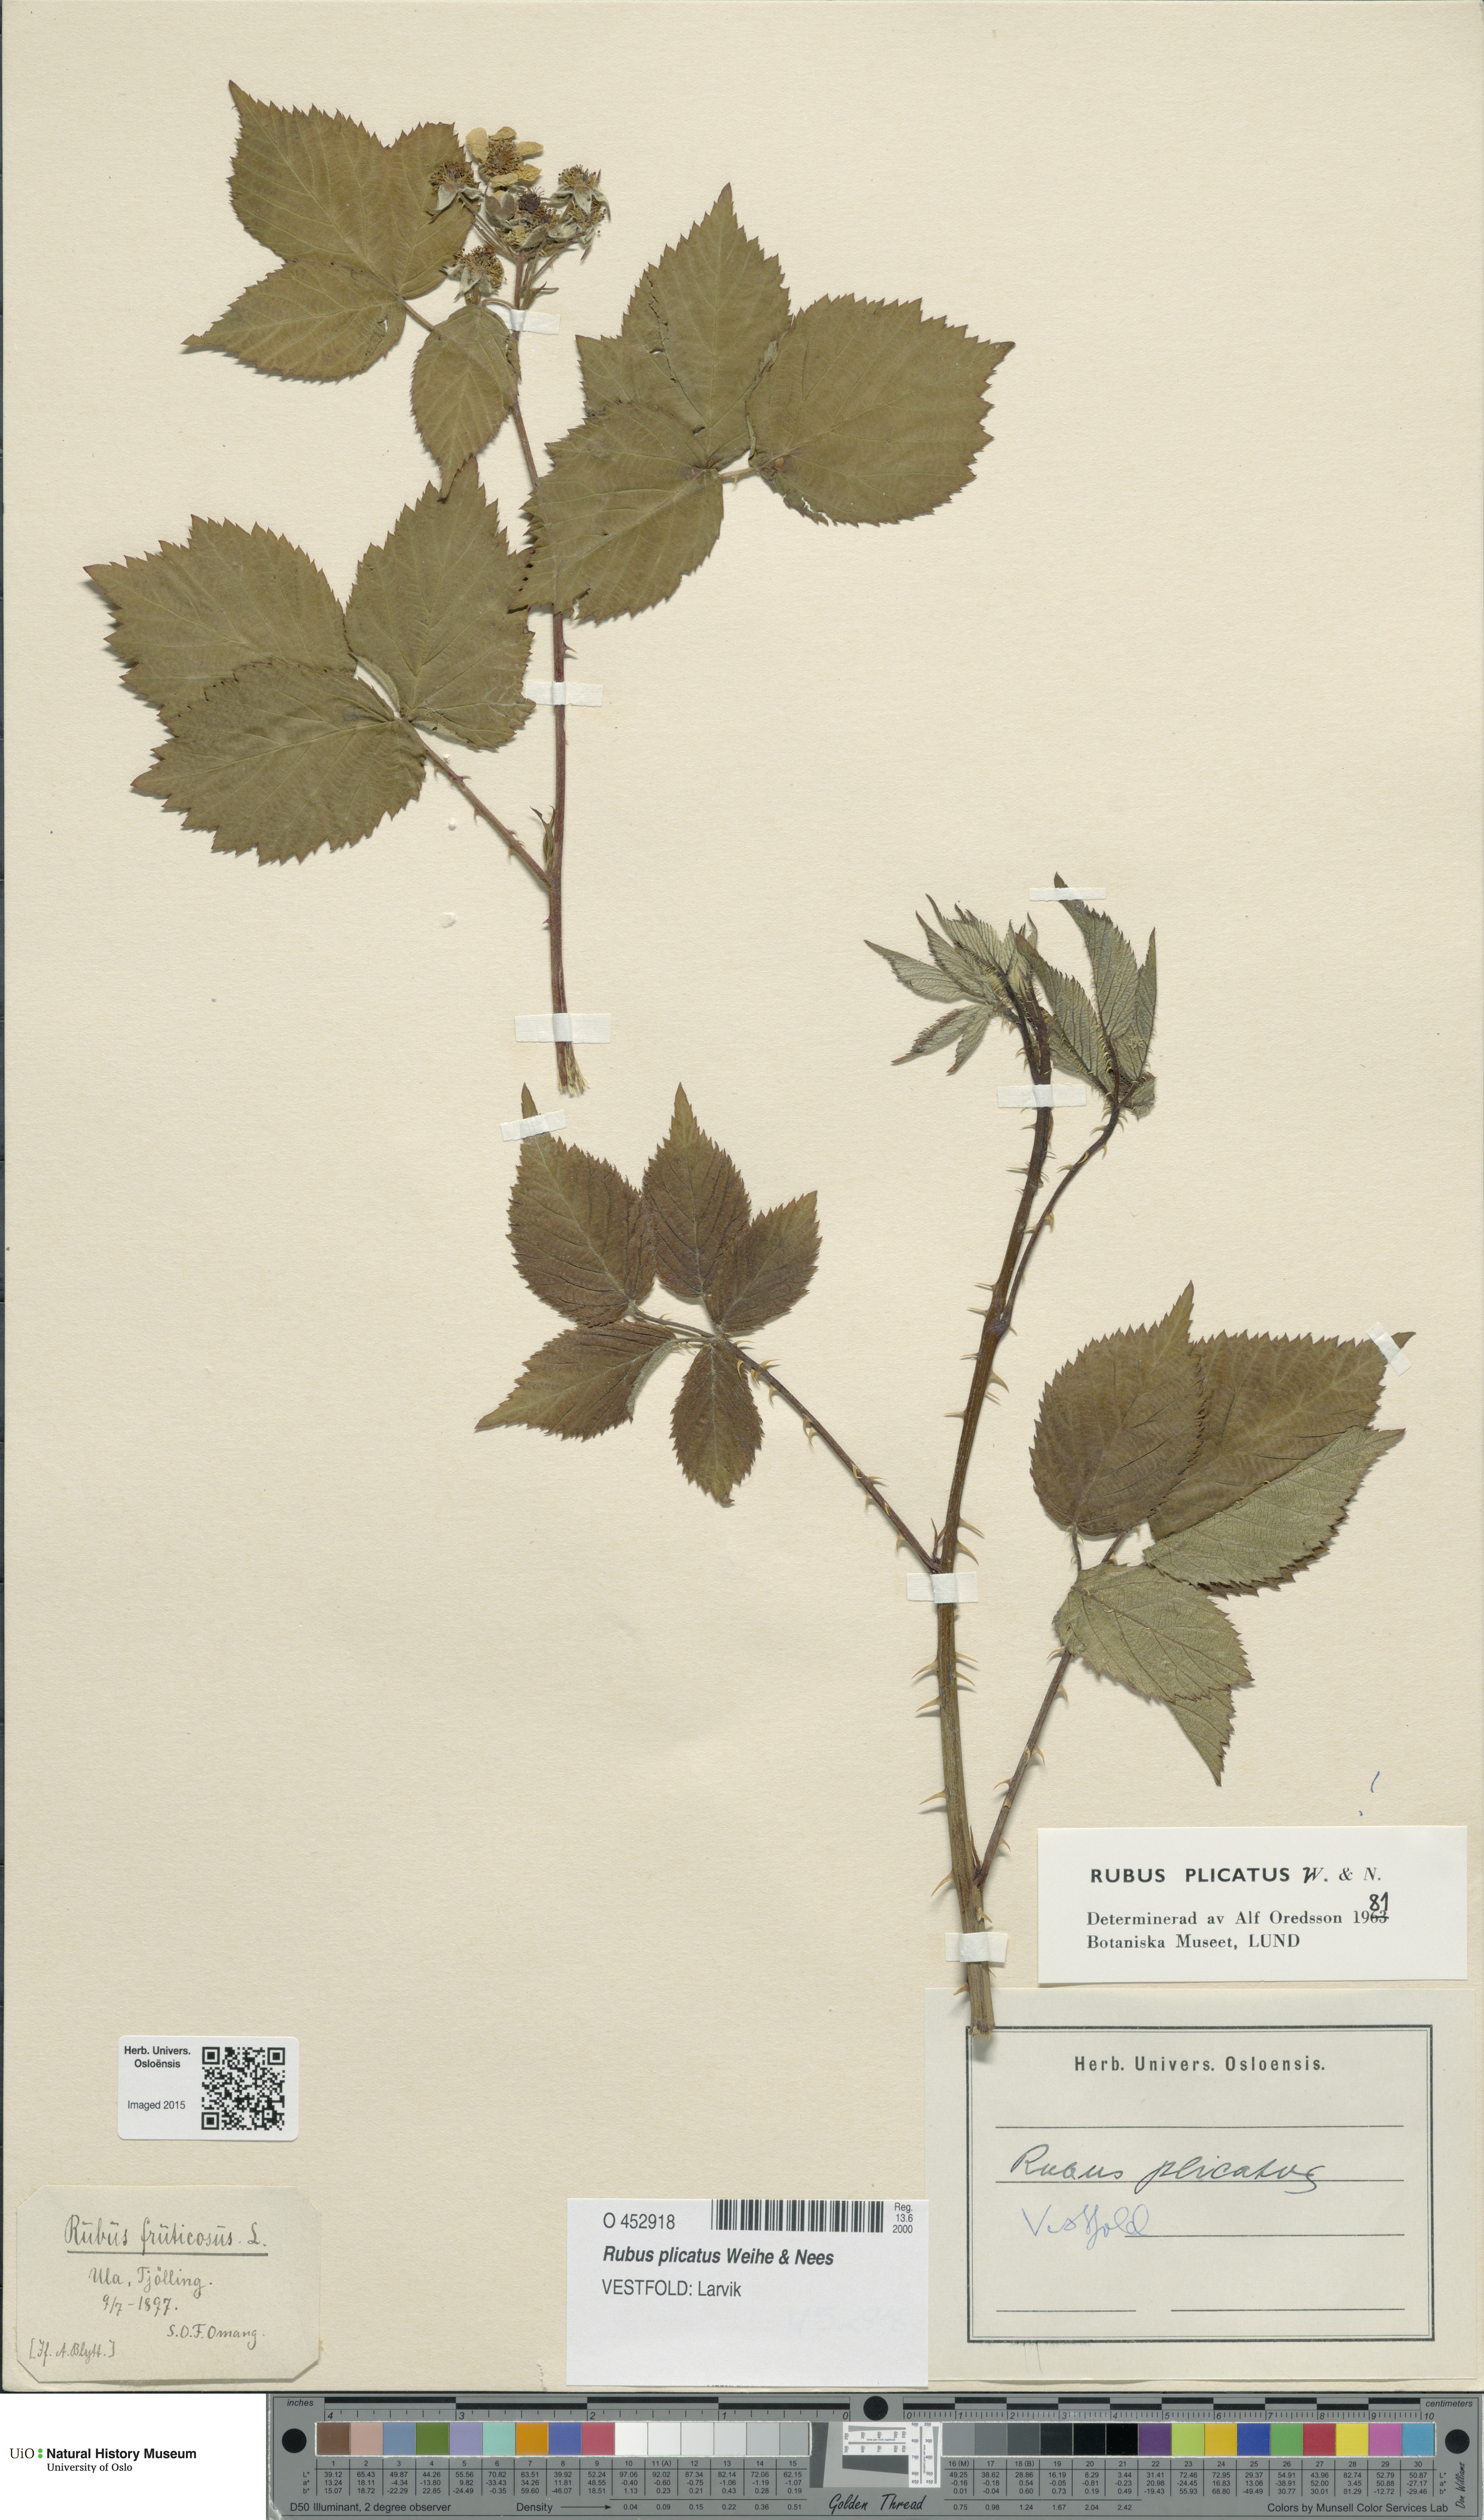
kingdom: Plantae
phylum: Tracheophyta
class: Magnoliopsida
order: Rosales
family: Rosaceae
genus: Rubus
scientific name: Rubus fruticosus
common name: Blackberry, bramble
